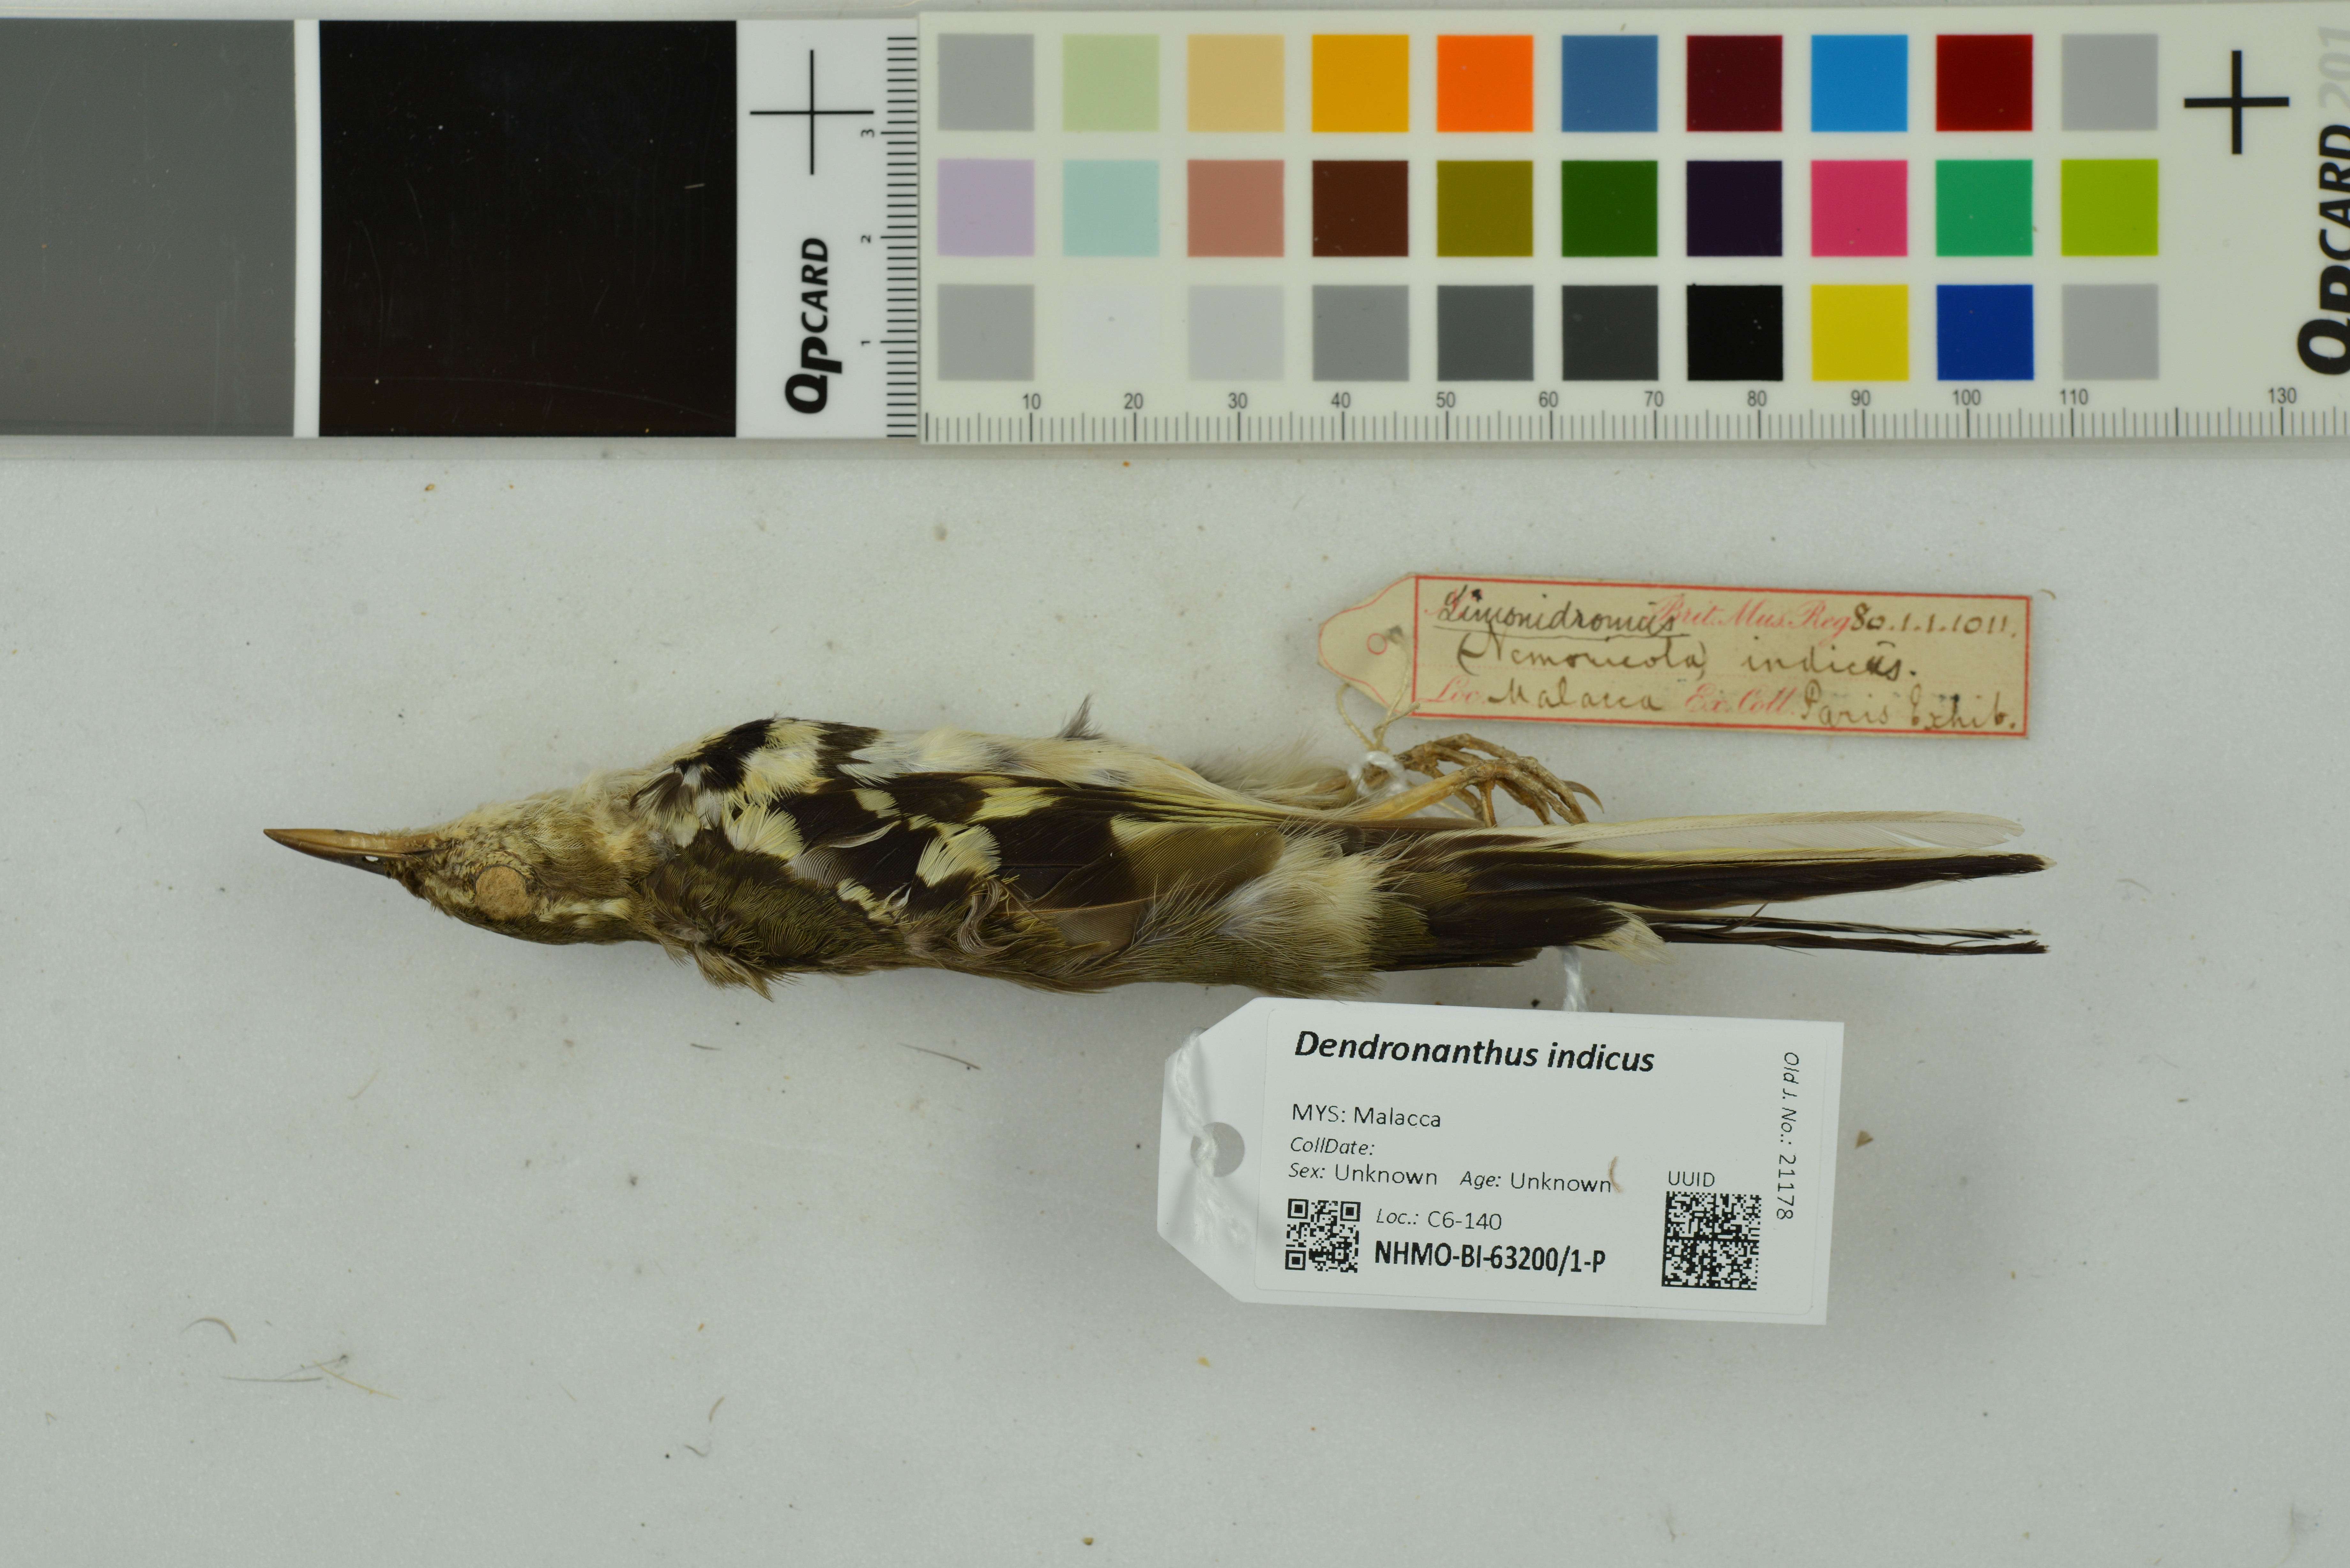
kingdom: Animalia
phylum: Chordata
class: Aves
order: Passeriformes
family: Motacillidae
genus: Dendronanthus
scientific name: Dendronanthus indicus
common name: Forest wagtail
